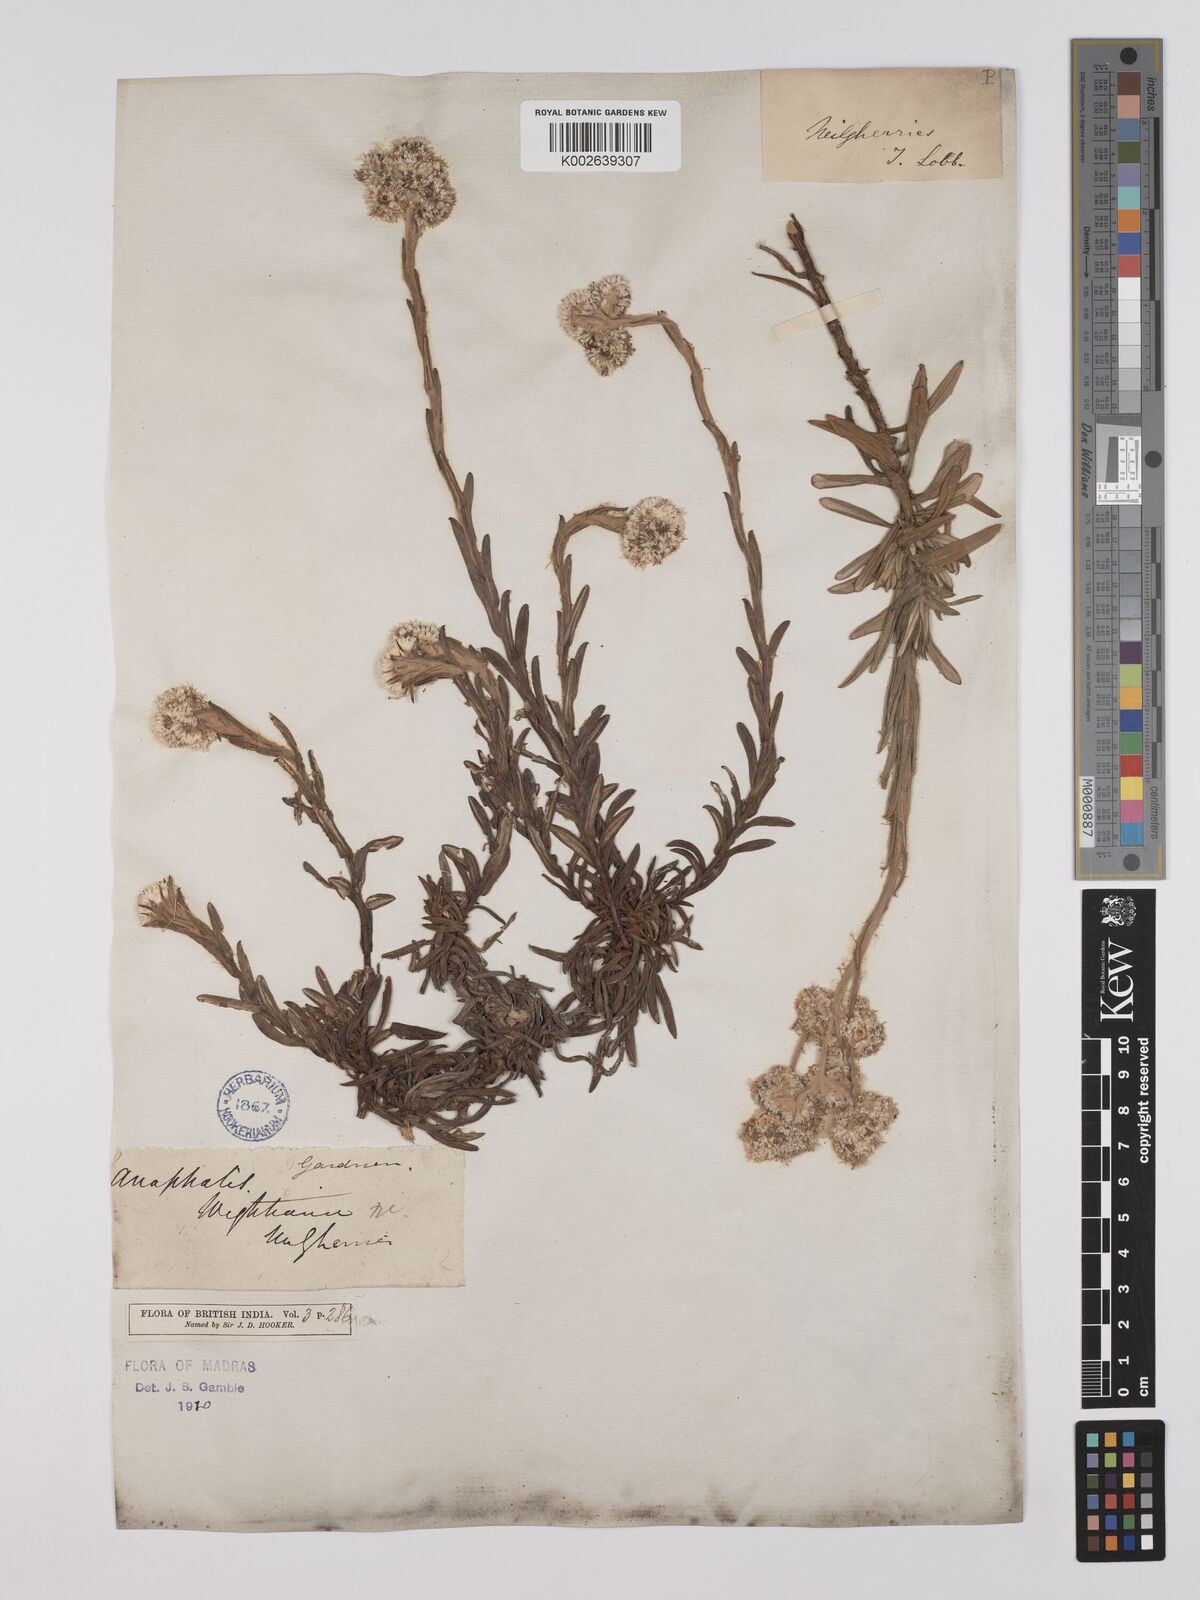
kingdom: Plantae
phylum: Tracheophyta
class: Magnoliopsida
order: Asterales
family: Asteraceae
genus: Anaphalis
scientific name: Anaphalis wightiana
